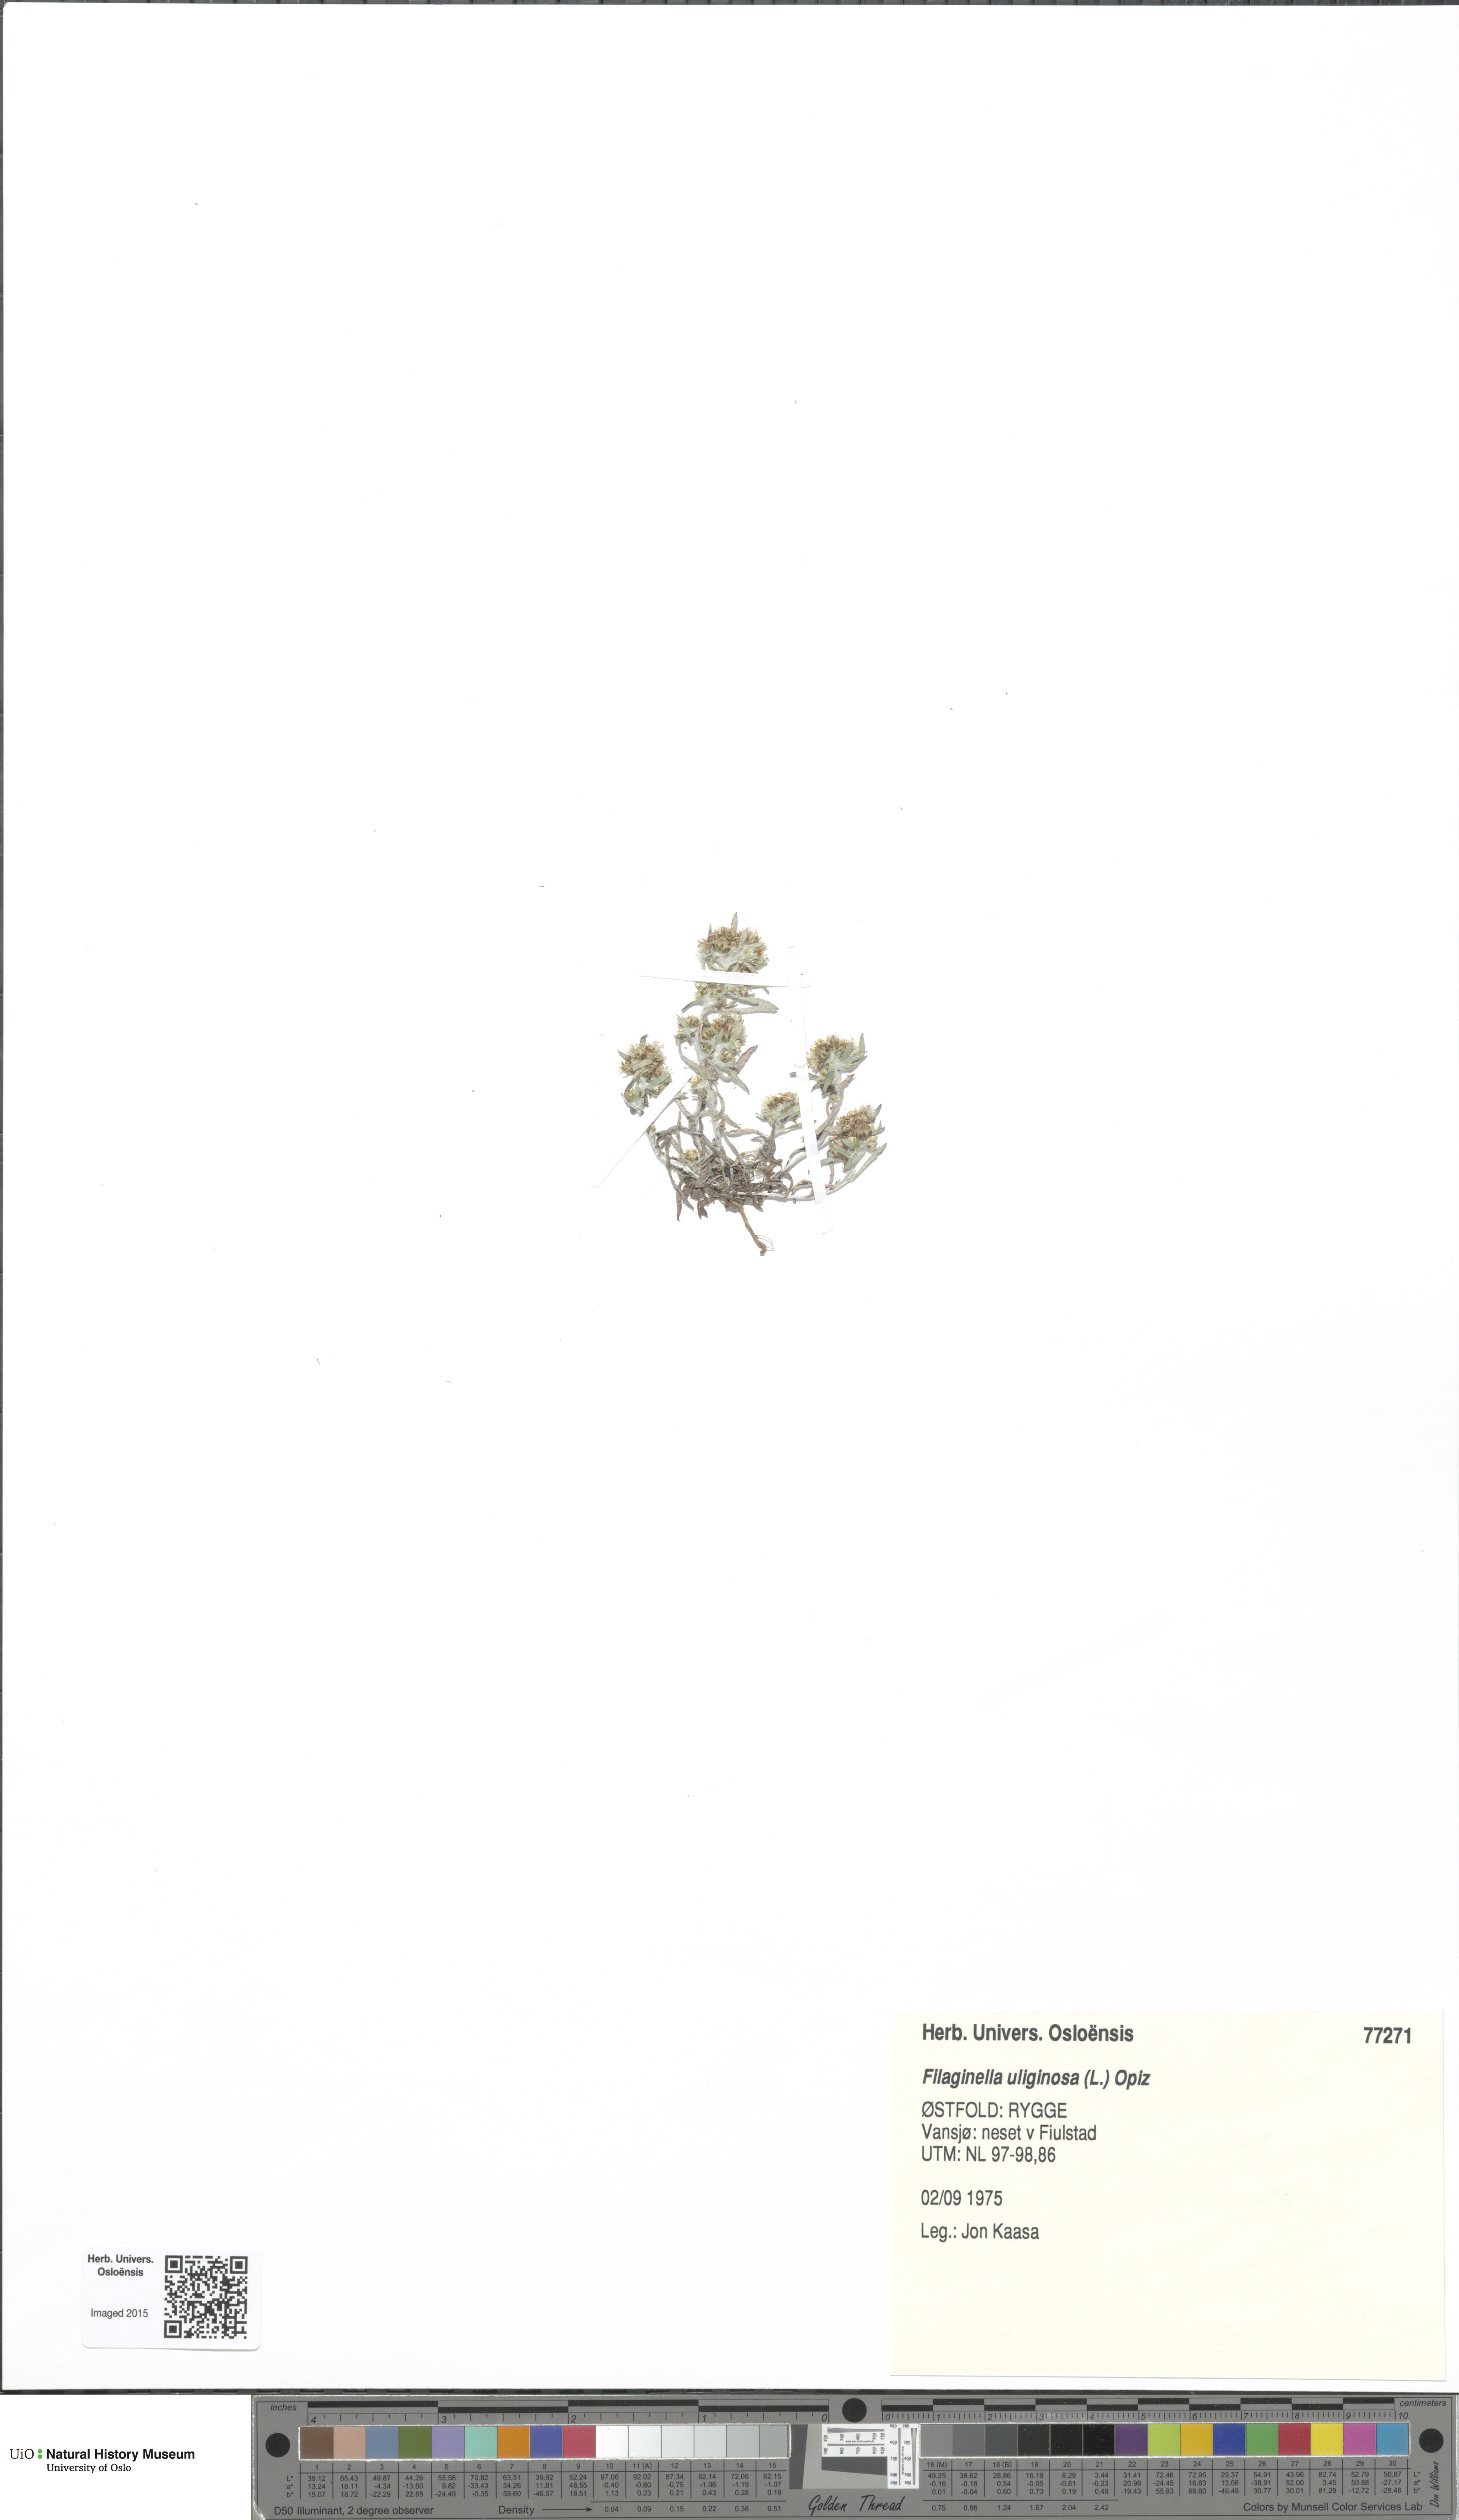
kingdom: Plantae
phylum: Tracheophyta
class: Magnoliopsida
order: Asterales
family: Asteraceae
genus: Gnaphalium
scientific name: Gnaphalium uliginosum
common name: Marsh cudweed
